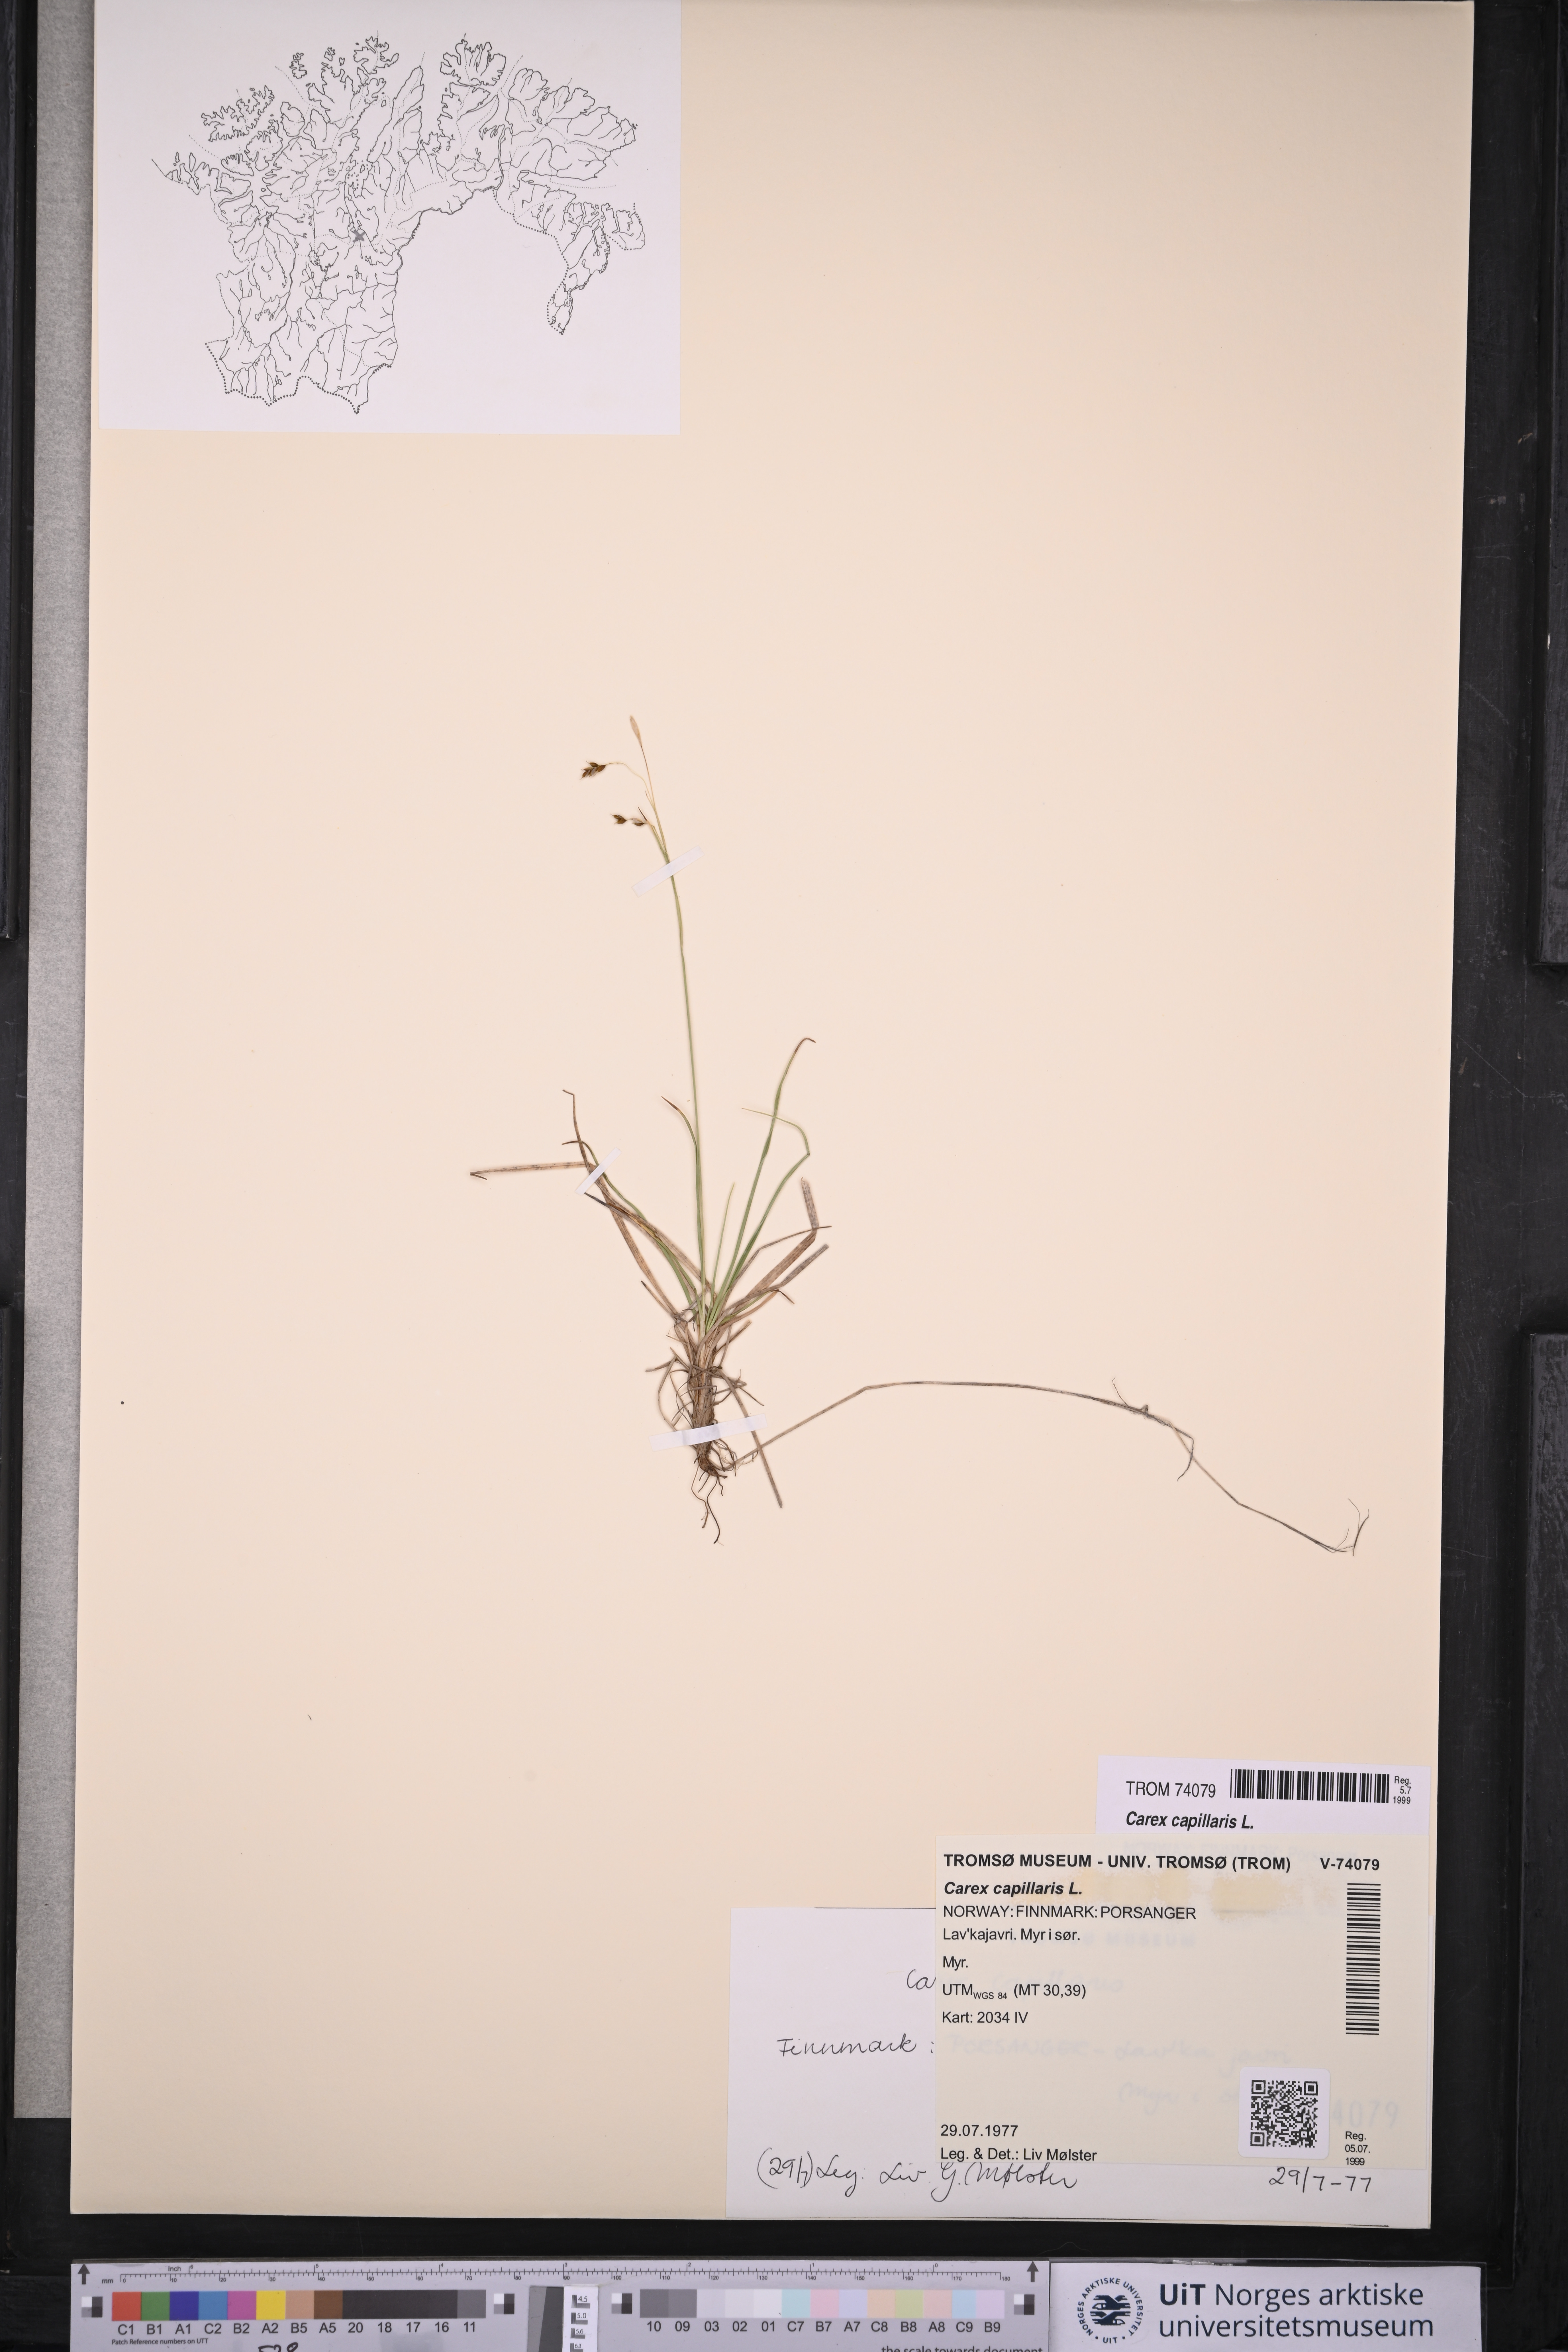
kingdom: Plantae
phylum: Tracheophyta
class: Liliopsida
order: Poales
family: Cyperaceae
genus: Carex
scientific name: Carex capillaris
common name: Hair sedge
